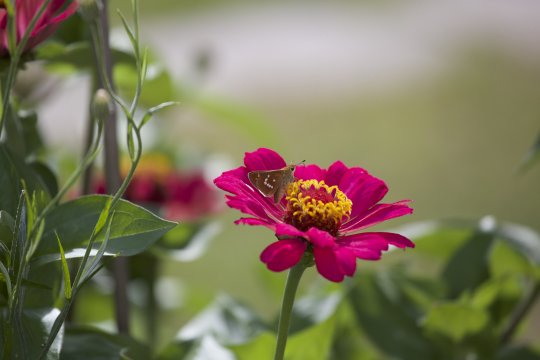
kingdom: Animalia
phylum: Arthropoda
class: Insecta
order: Lepidoptera
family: Hesperiidae
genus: Hesperia
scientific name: Hesperia leonardus
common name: Leonard's Skipper
